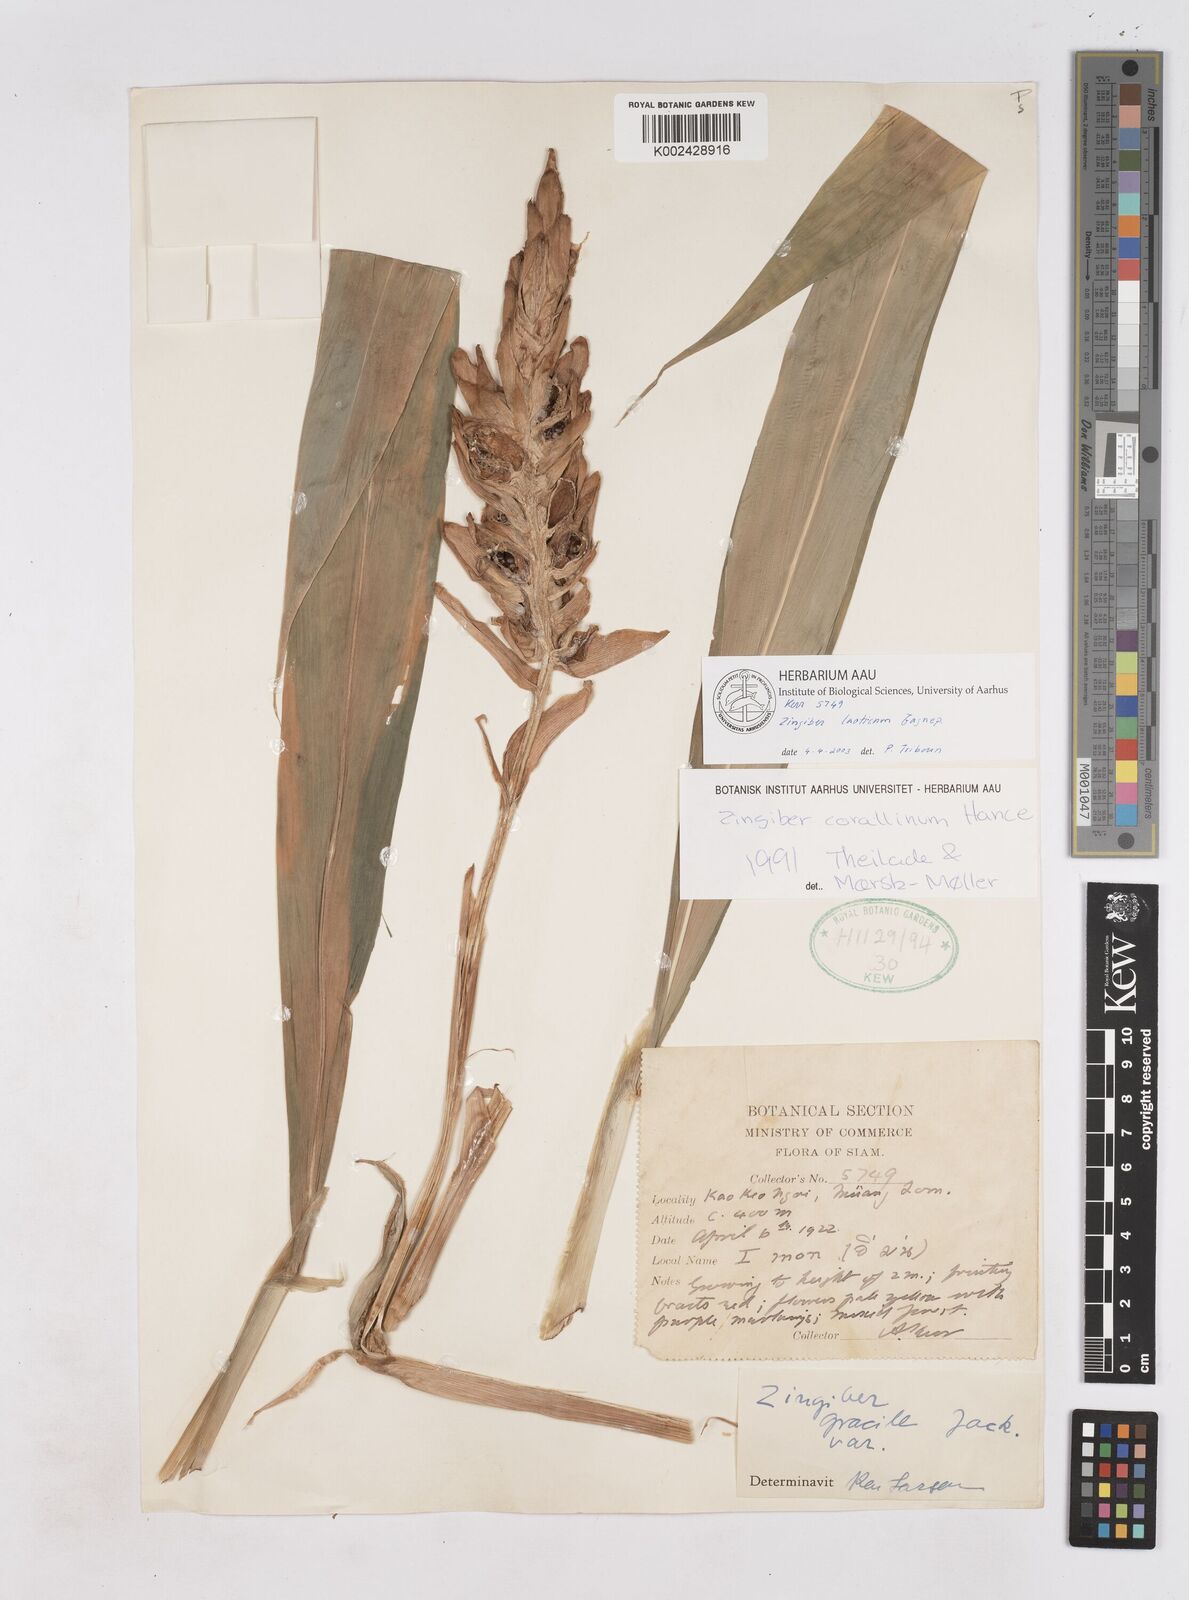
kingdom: Plantae
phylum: Tracheophyta
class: Liliopsida
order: Zingiberales
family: Zingiberaceae
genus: Zingiber
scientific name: Zingiber laoticum
